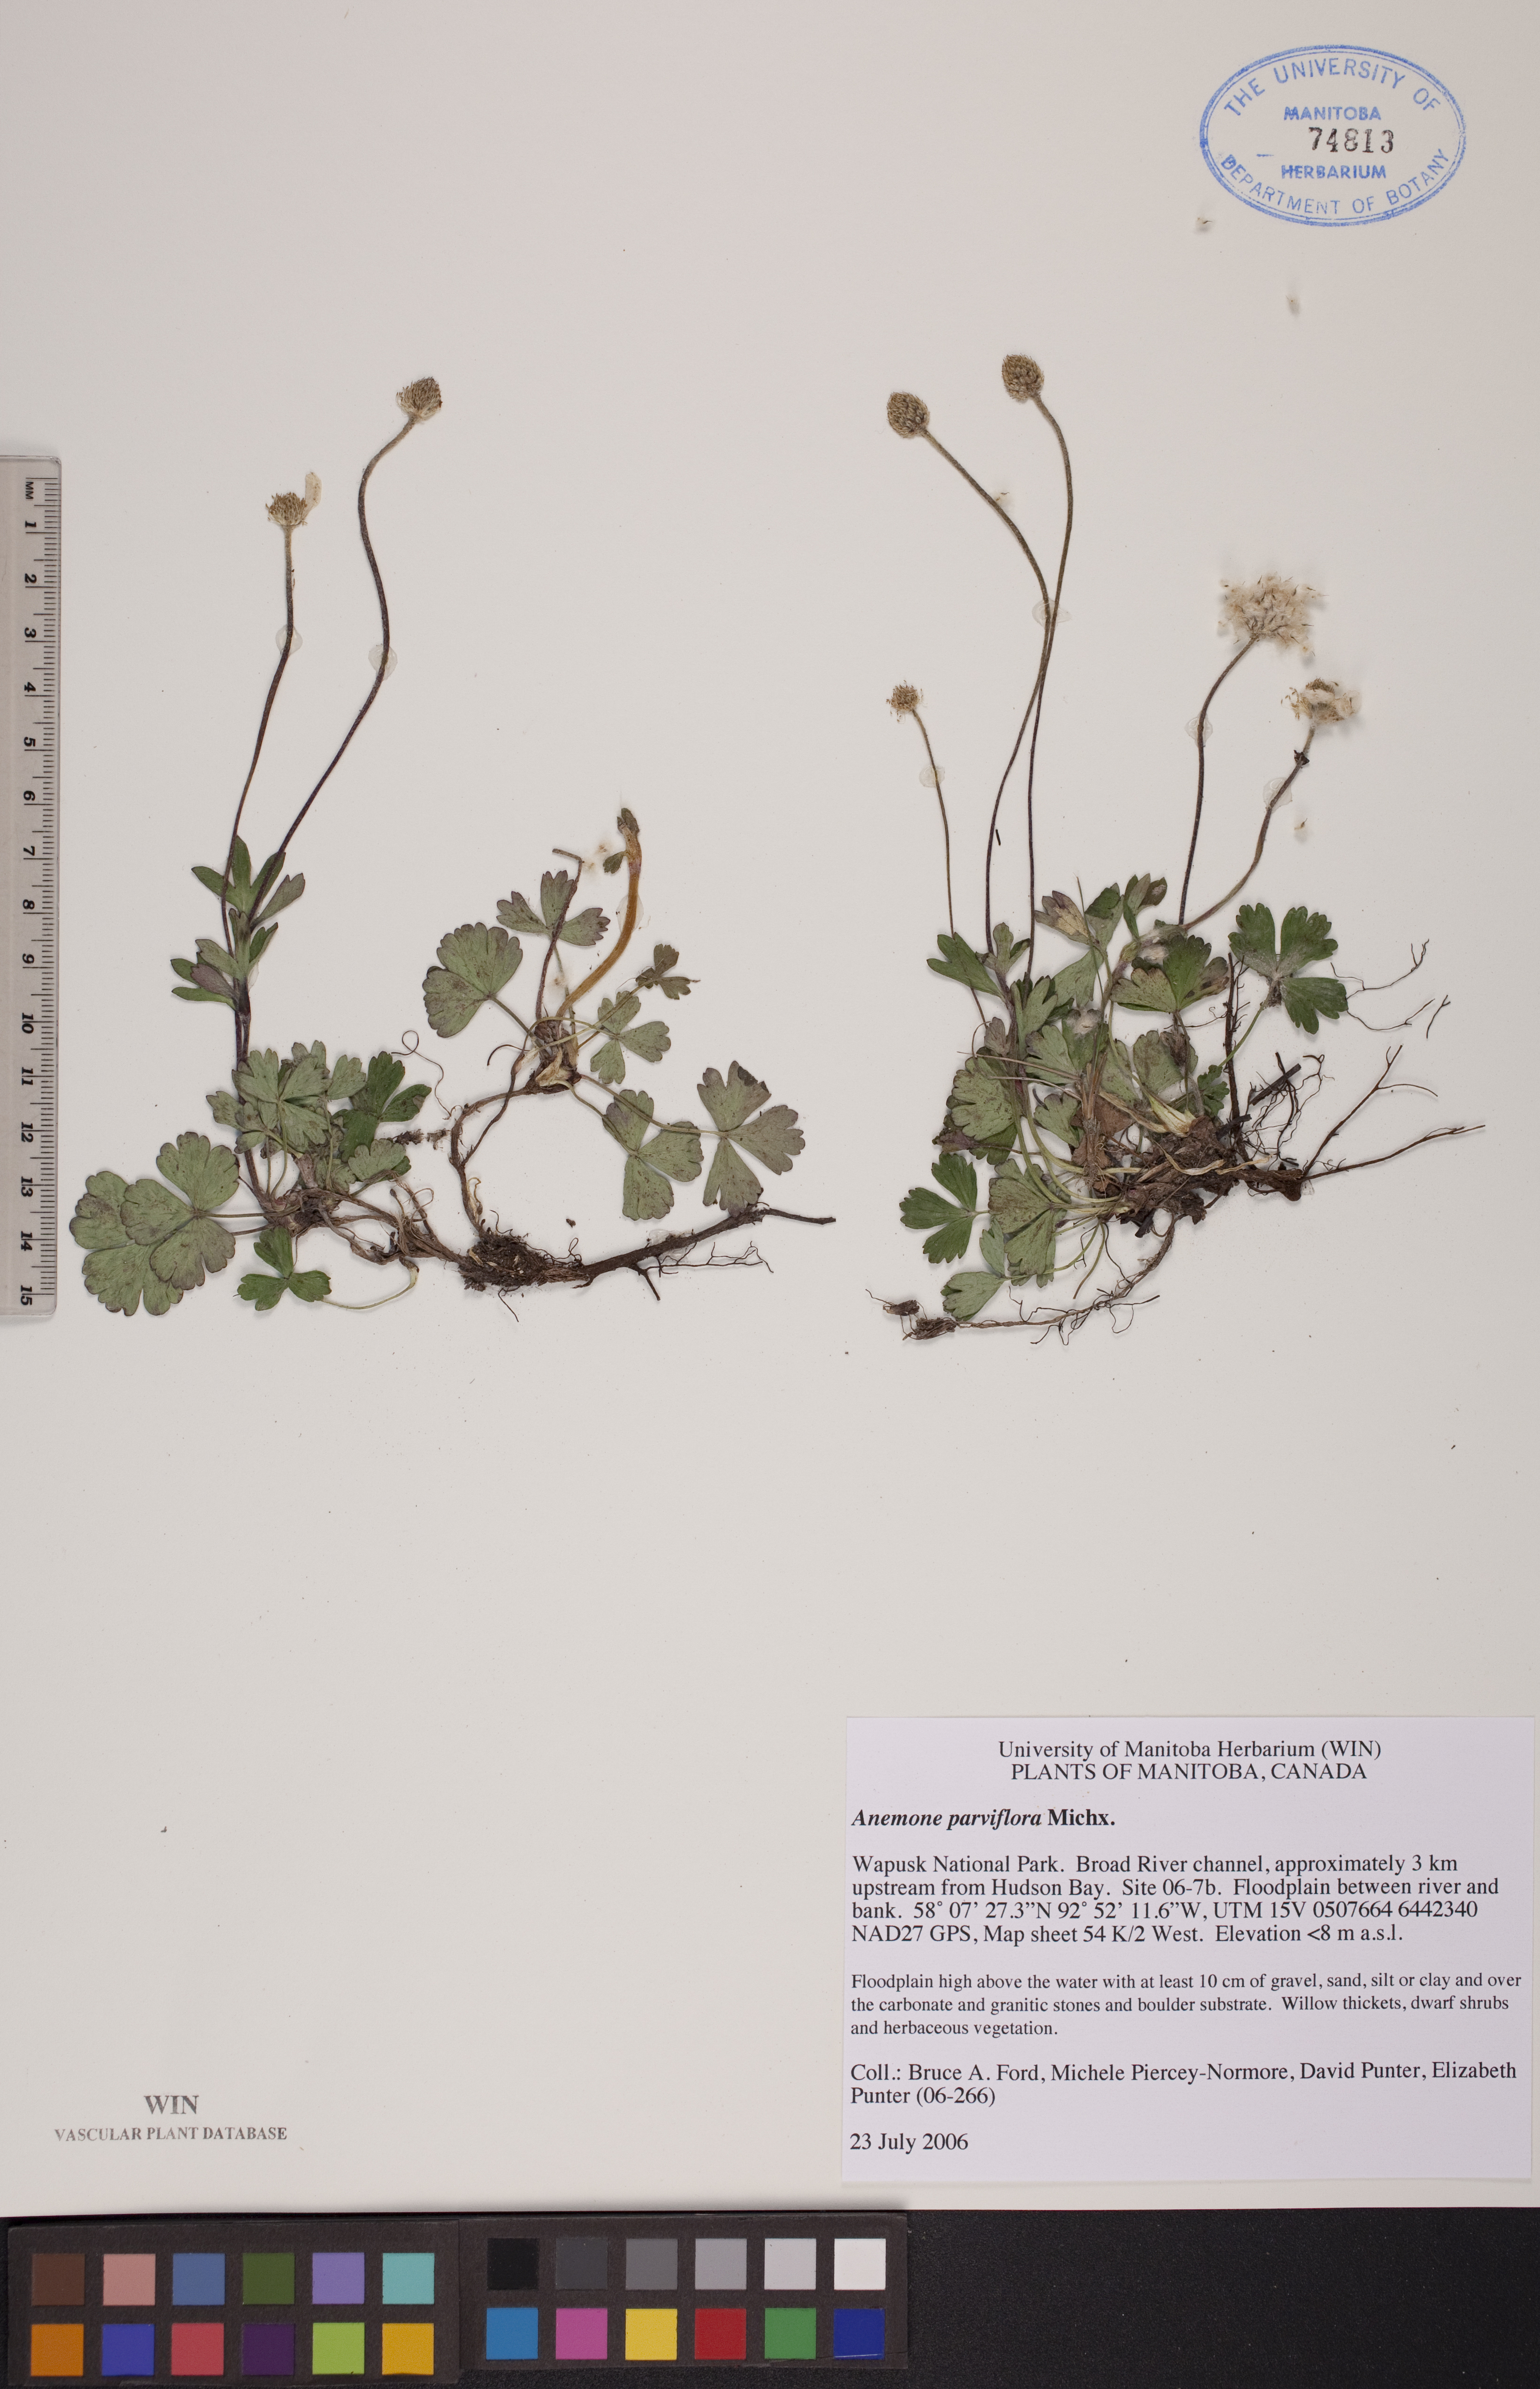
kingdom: Plantae
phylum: Tracheophyta
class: Magnoliopsida
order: Ranunculales
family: Ranunculaceae
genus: Anemone
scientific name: Anemone parviflora
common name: Northern anemone
